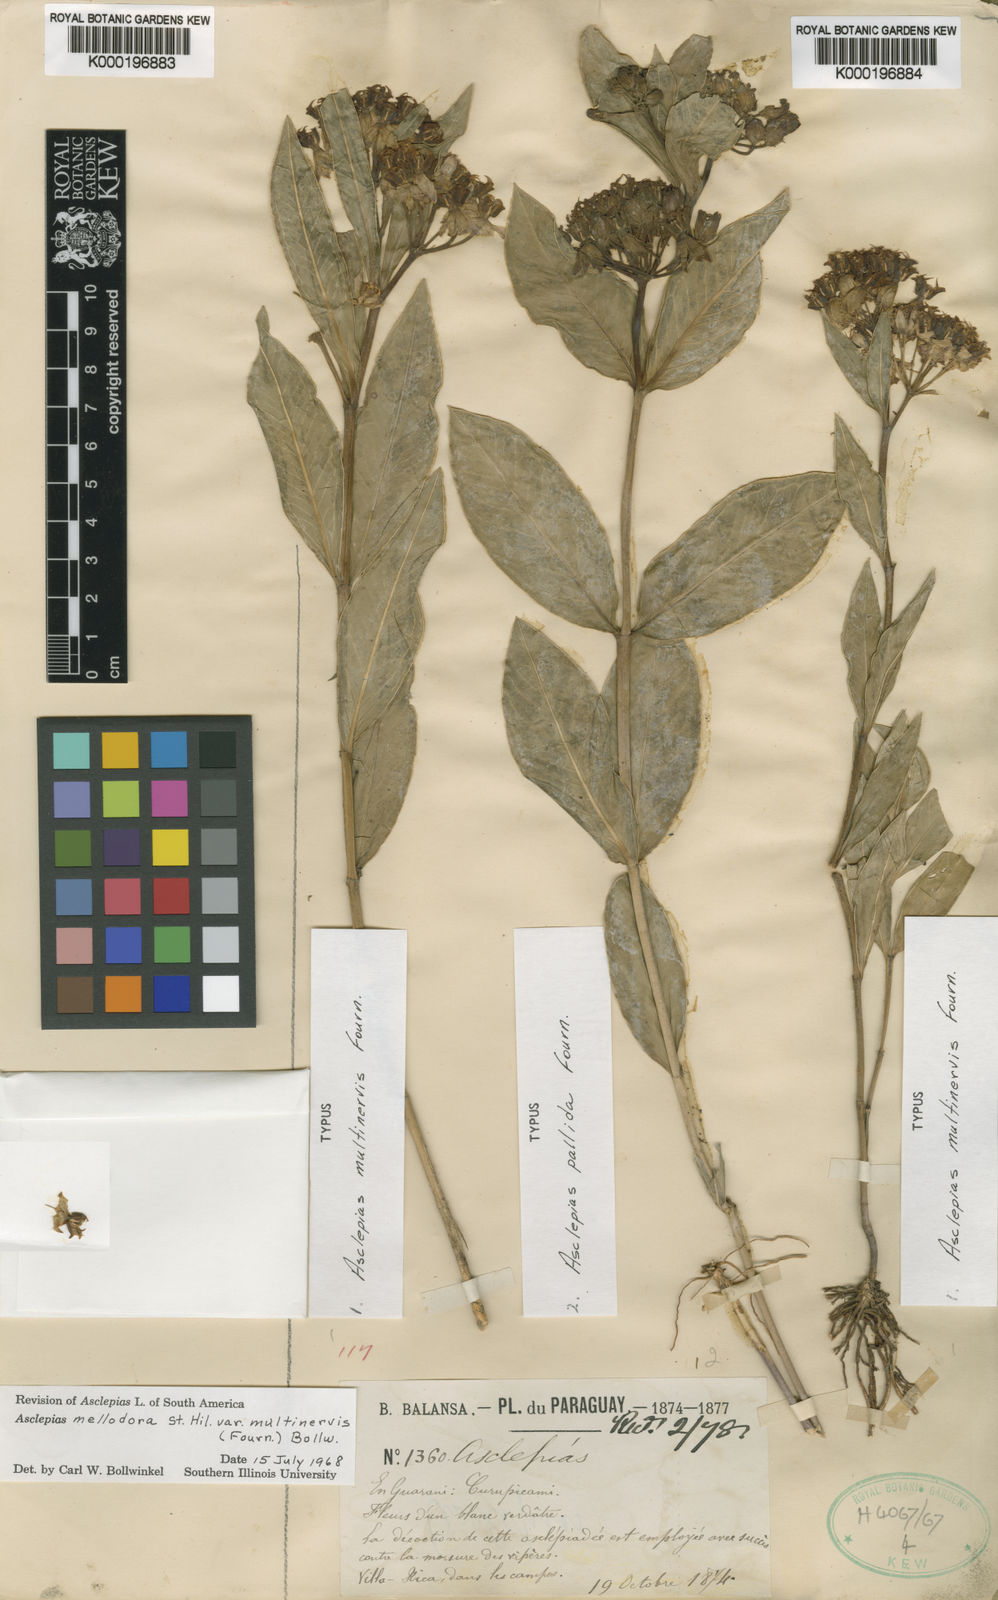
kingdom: Plantae
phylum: Tracheophyta
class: Magnoliopsida
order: Gentianales
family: Apocynaceae
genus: Asclepias
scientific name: Asclepias mellodora
